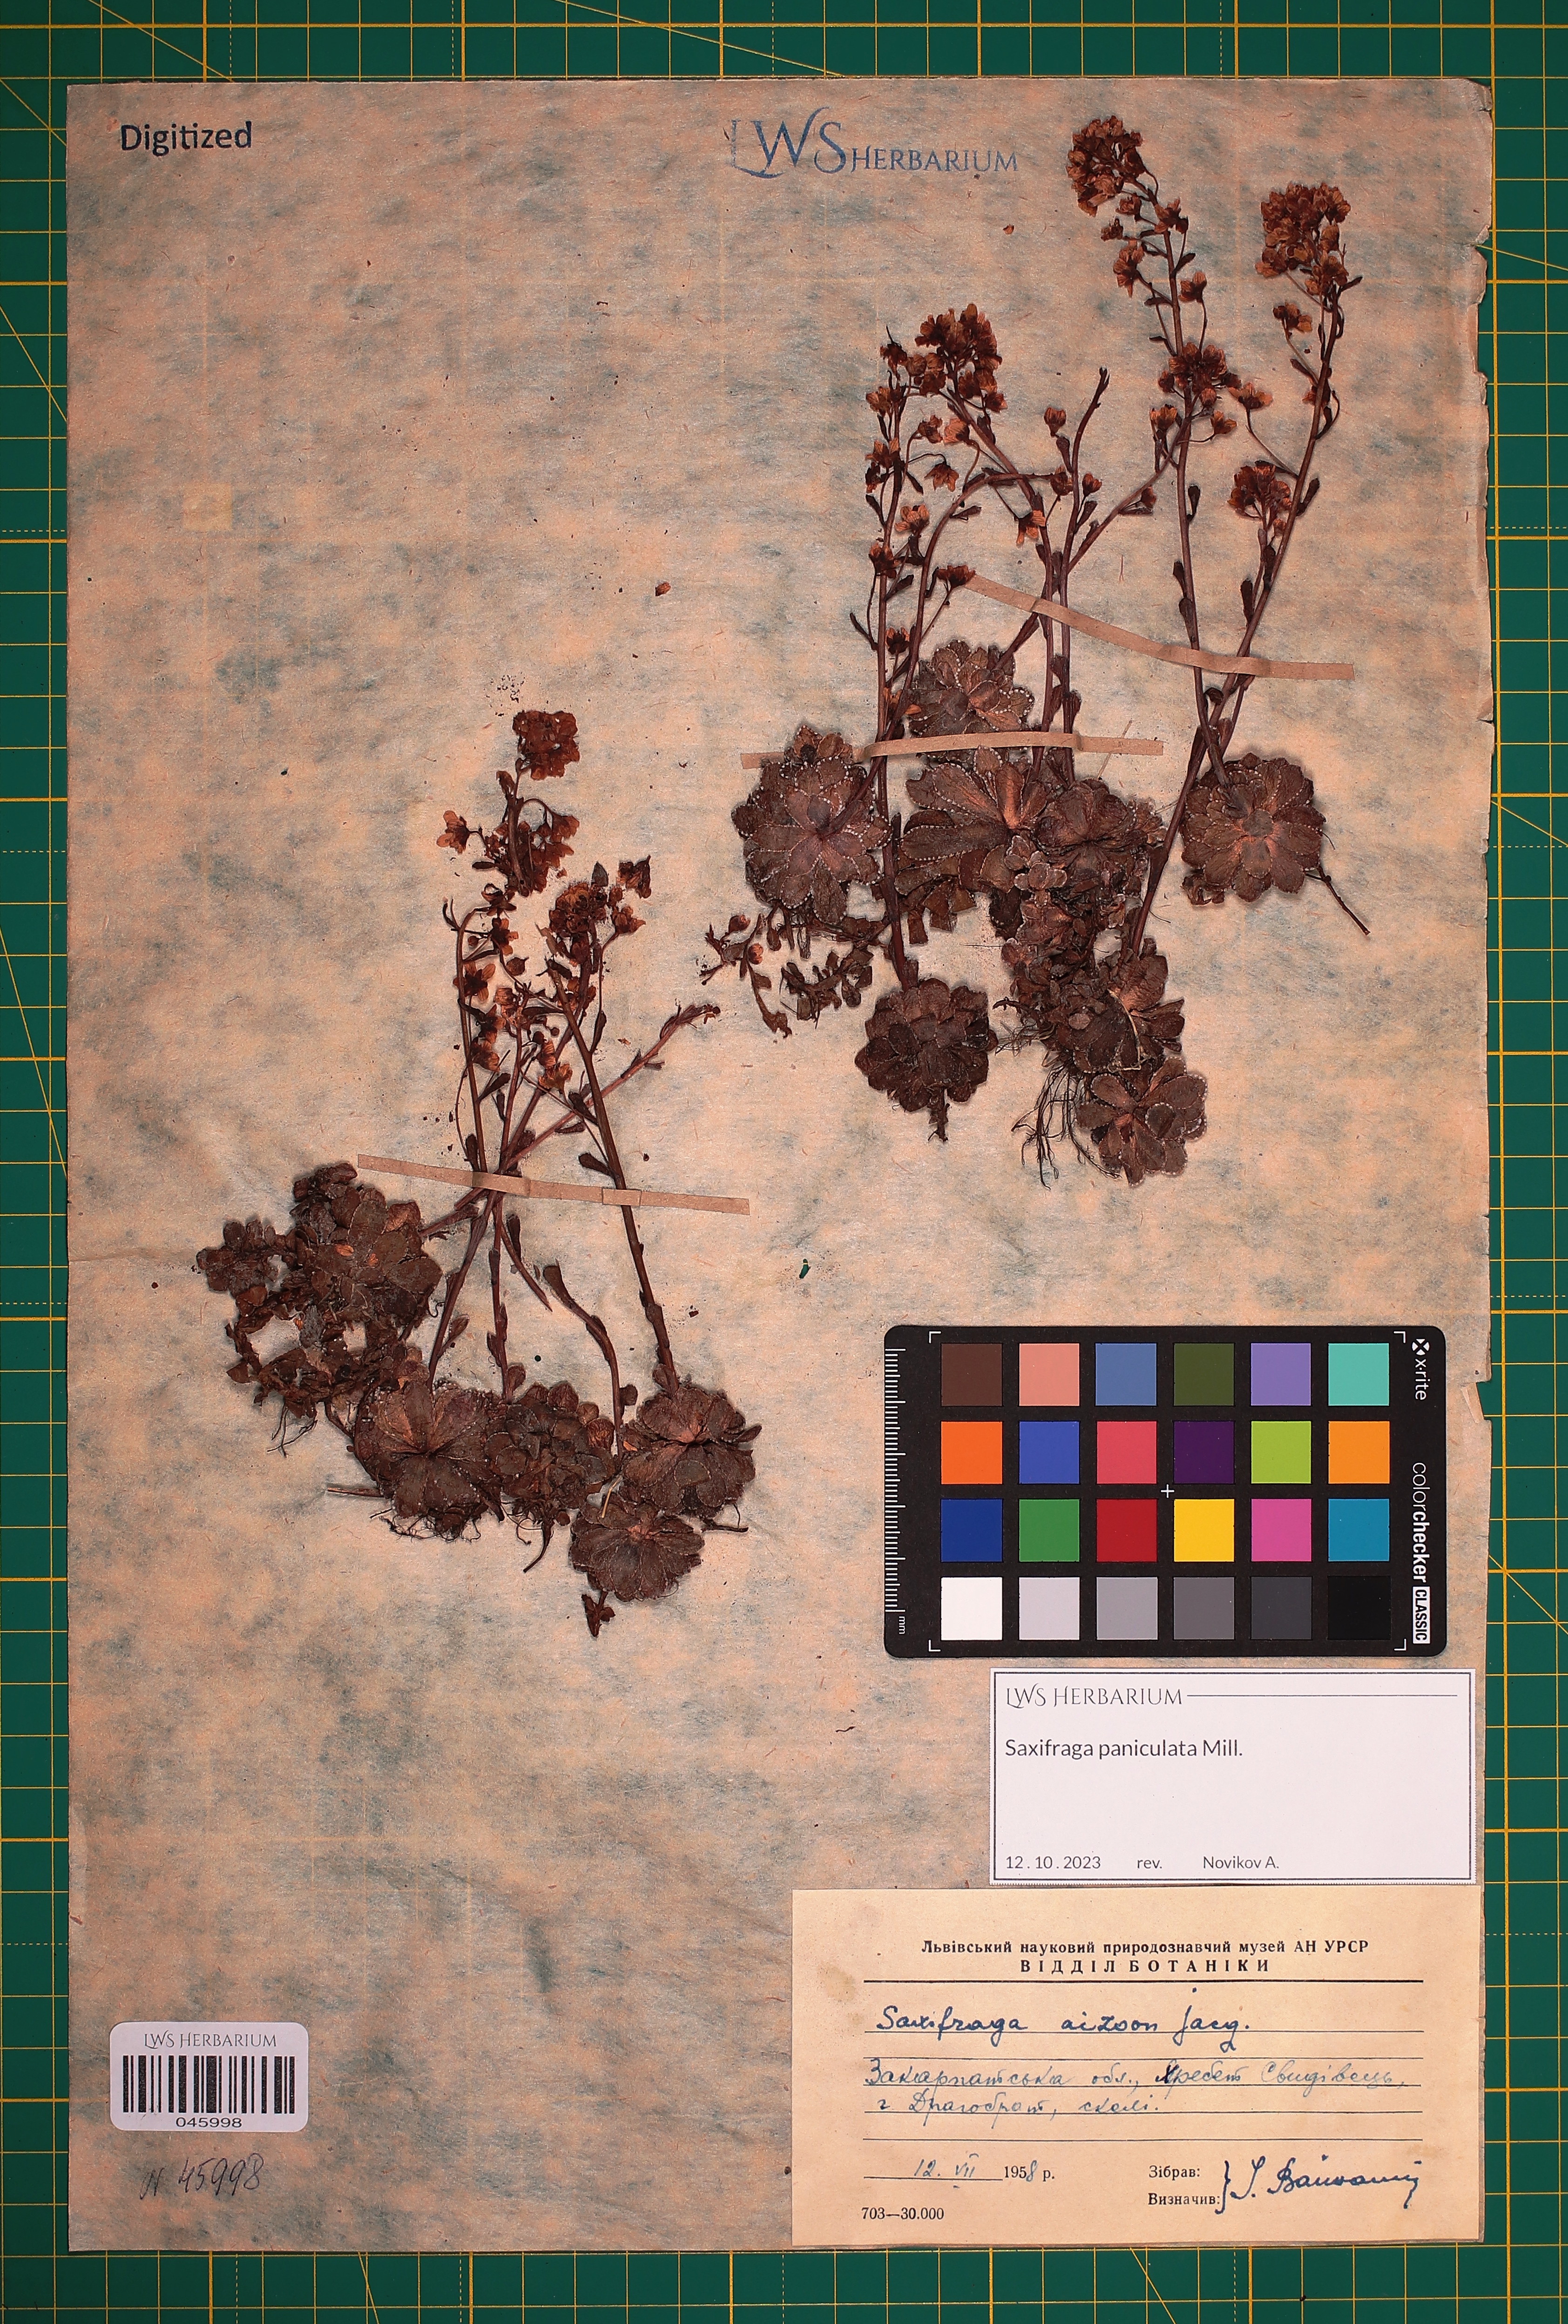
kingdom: Plantae
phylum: Tracheophyta
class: Magnoliopsida
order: Saxifragales
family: Saxifragaceae
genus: Saxifraga
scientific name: Saxifraga paniculata
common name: Livelong saxifrage
